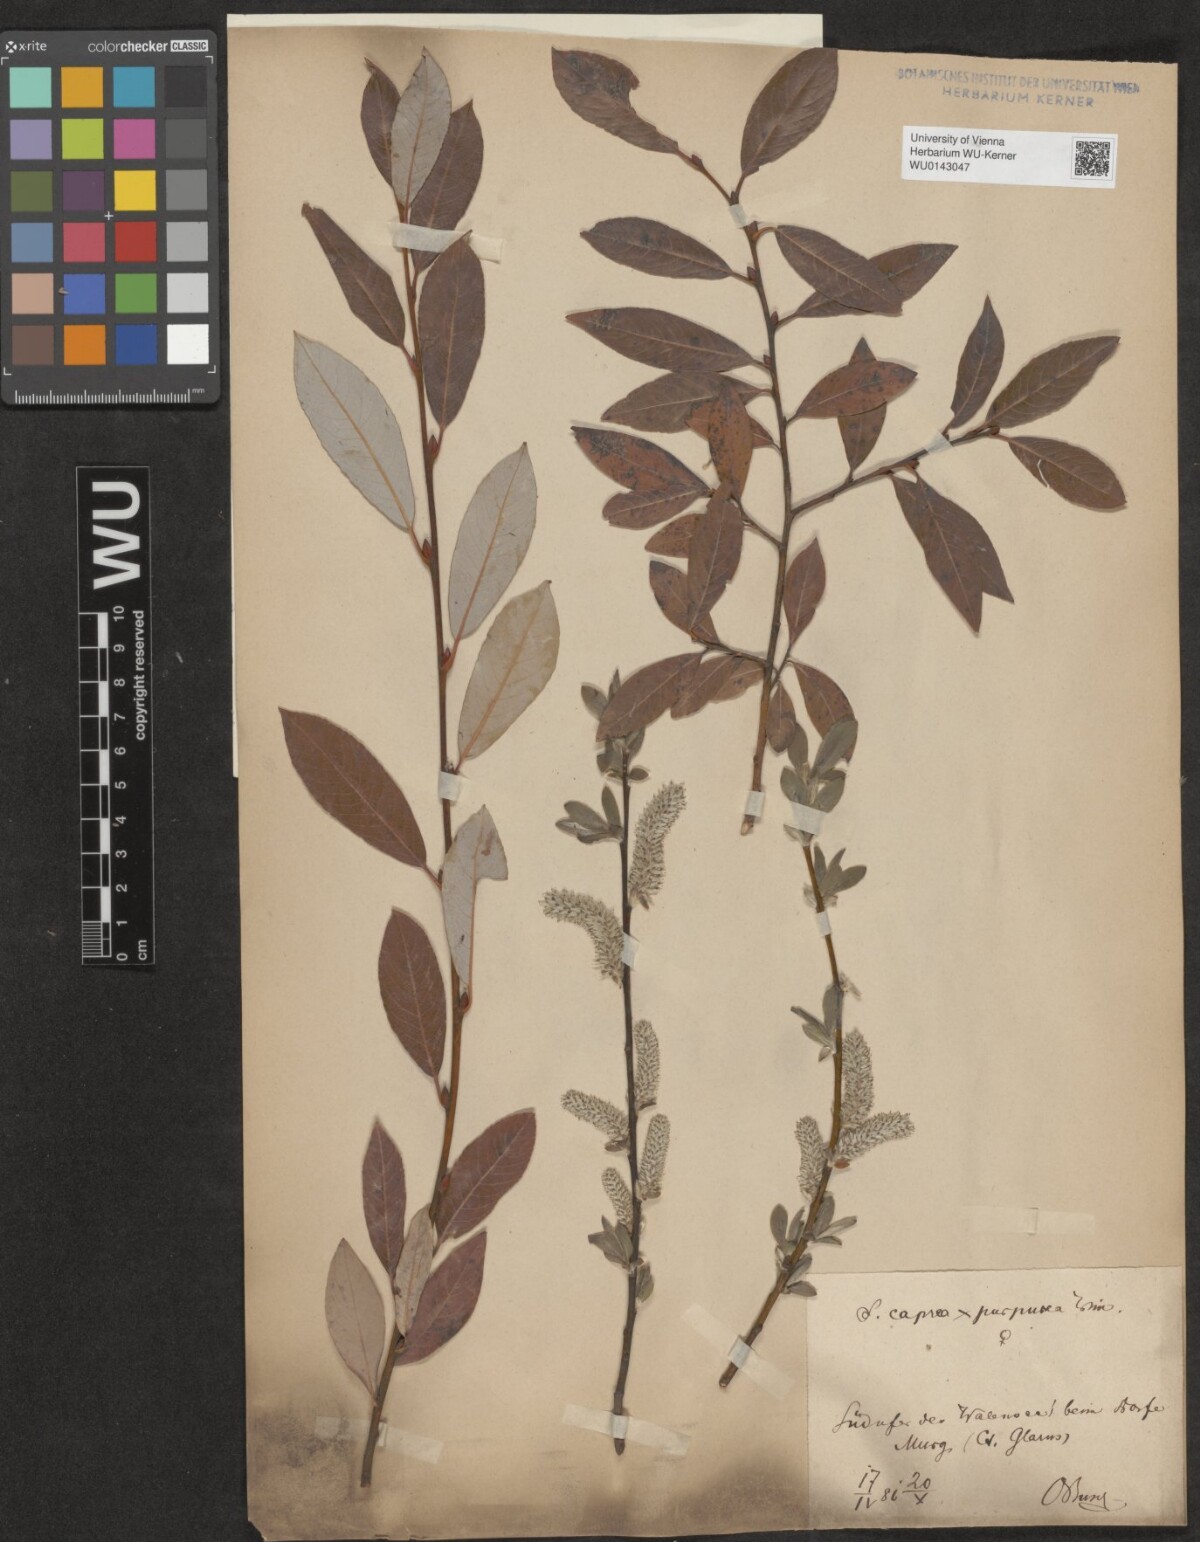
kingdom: Plantae
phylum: Tracheophyta
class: Magnoliopsida
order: Malpighiales
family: Salicaceae
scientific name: Salicaceae
